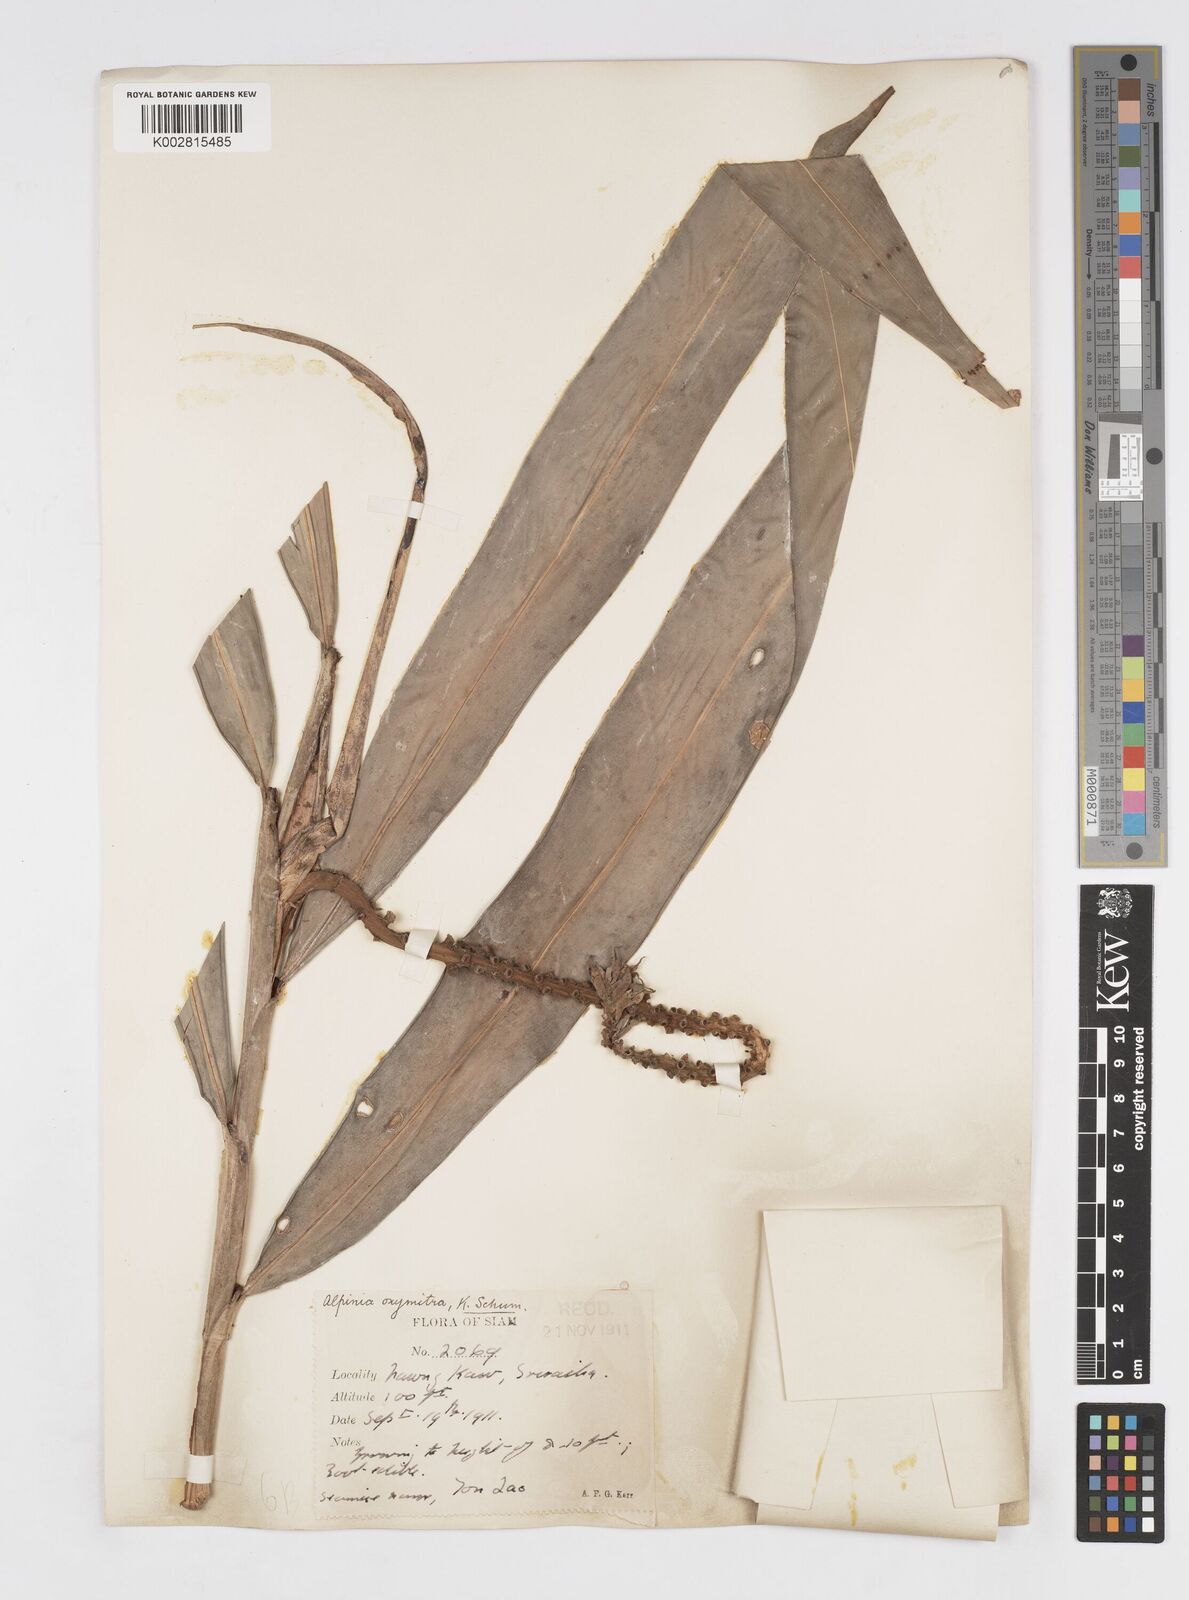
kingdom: Plantae
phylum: Tracheophyta
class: Liliopsida
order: Zingiberales
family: Zingiberaceae
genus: Alpinia
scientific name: Alpinia oxymitra
